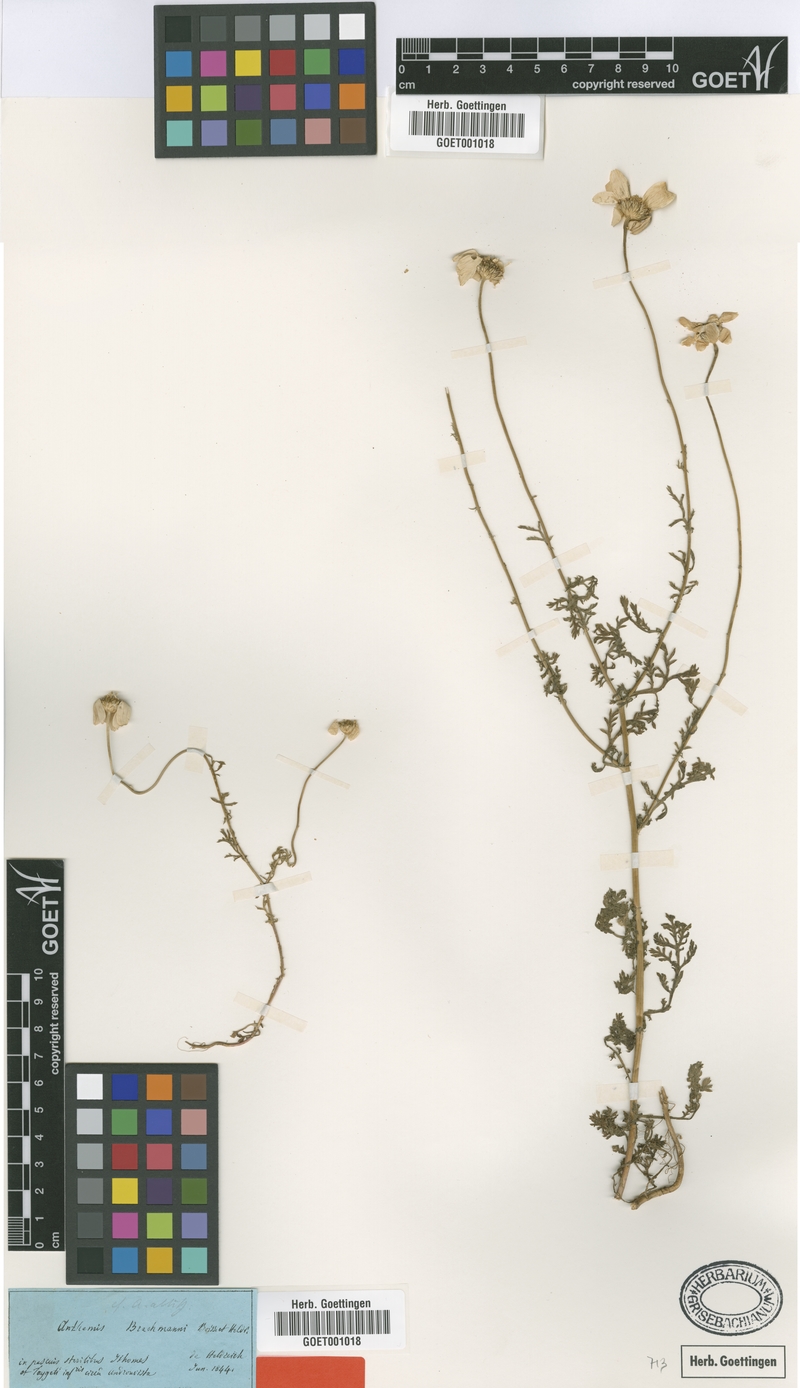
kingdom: Plantae
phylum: Tracheophyta
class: Magnoliopsida
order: Asterales
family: Asteraceae
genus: Cota
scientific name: Cota brachmanni
